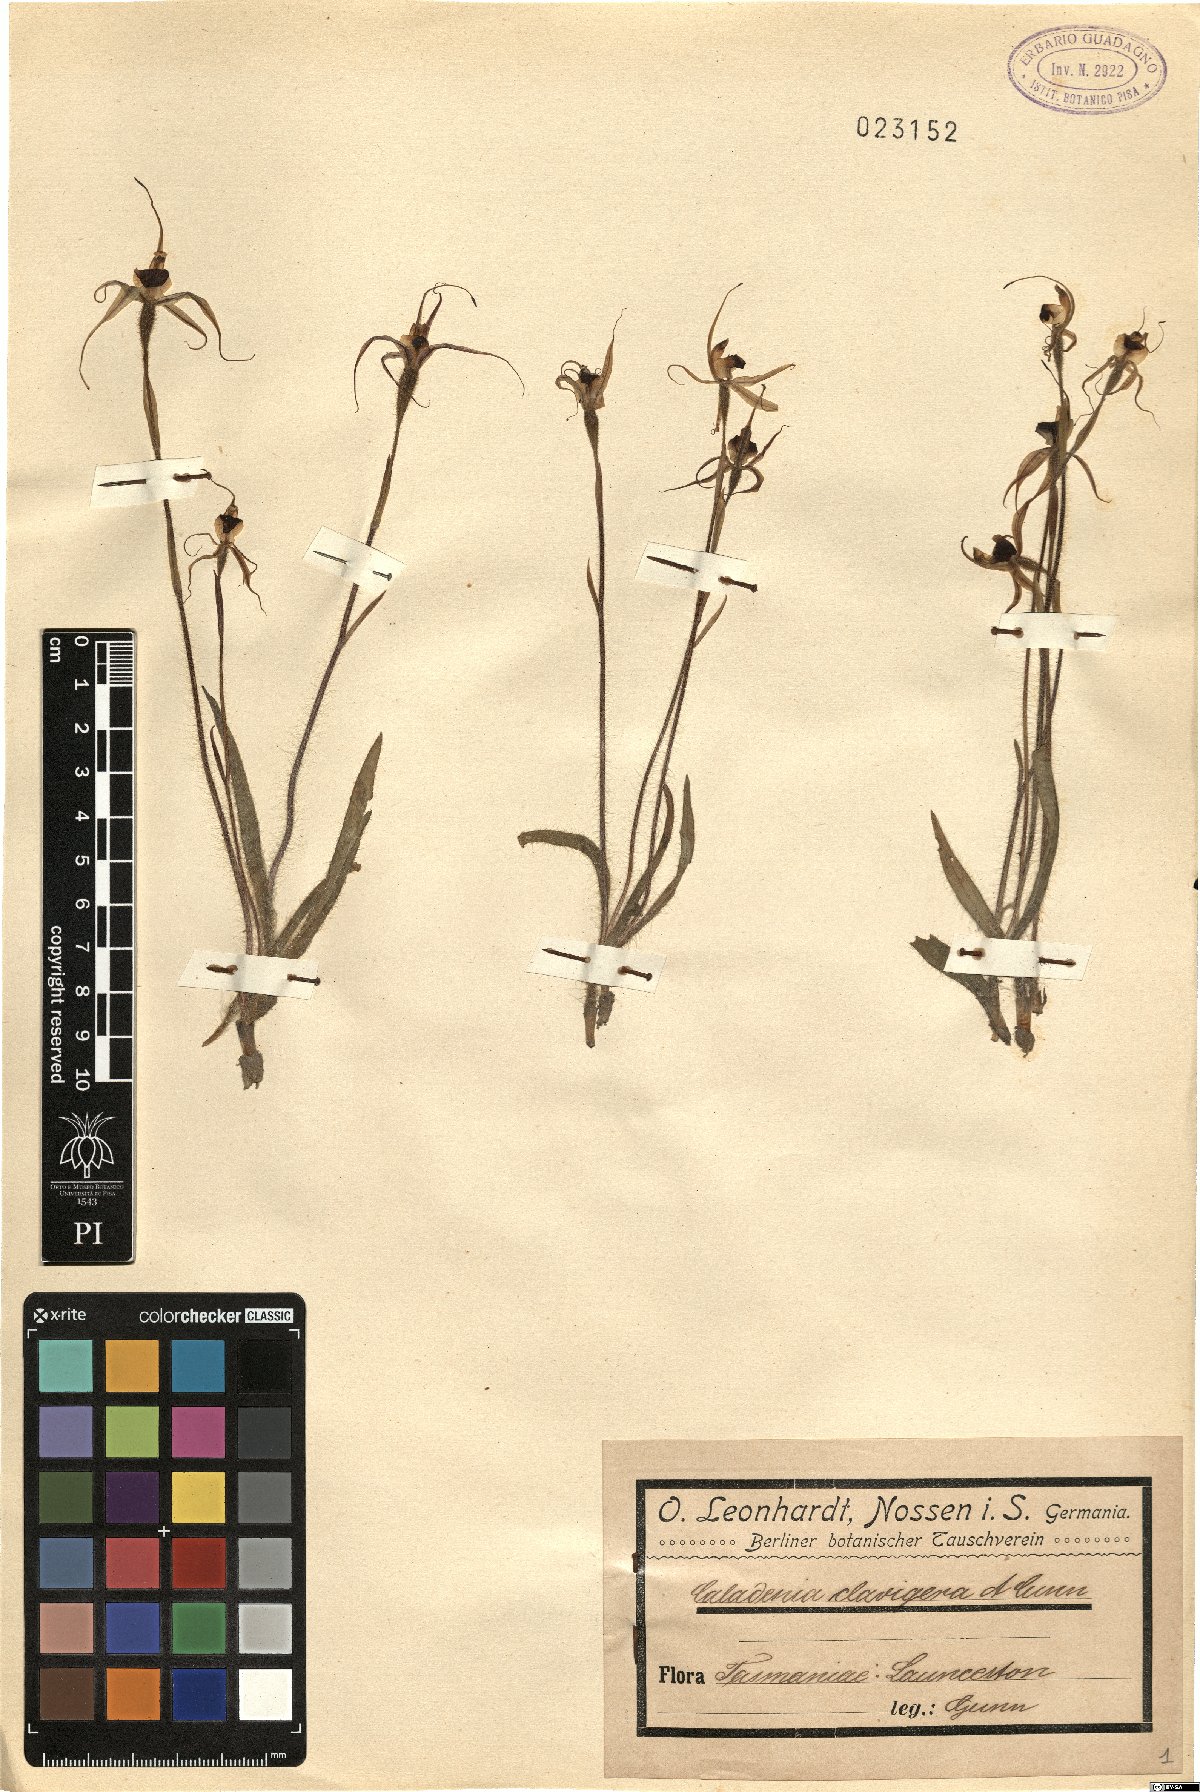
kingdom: Plantae
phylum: Tracheophyta
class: Liliopsida
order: Asparagales
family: Orchidaceae
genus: Caladenia
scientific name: Caladenia clavigera
